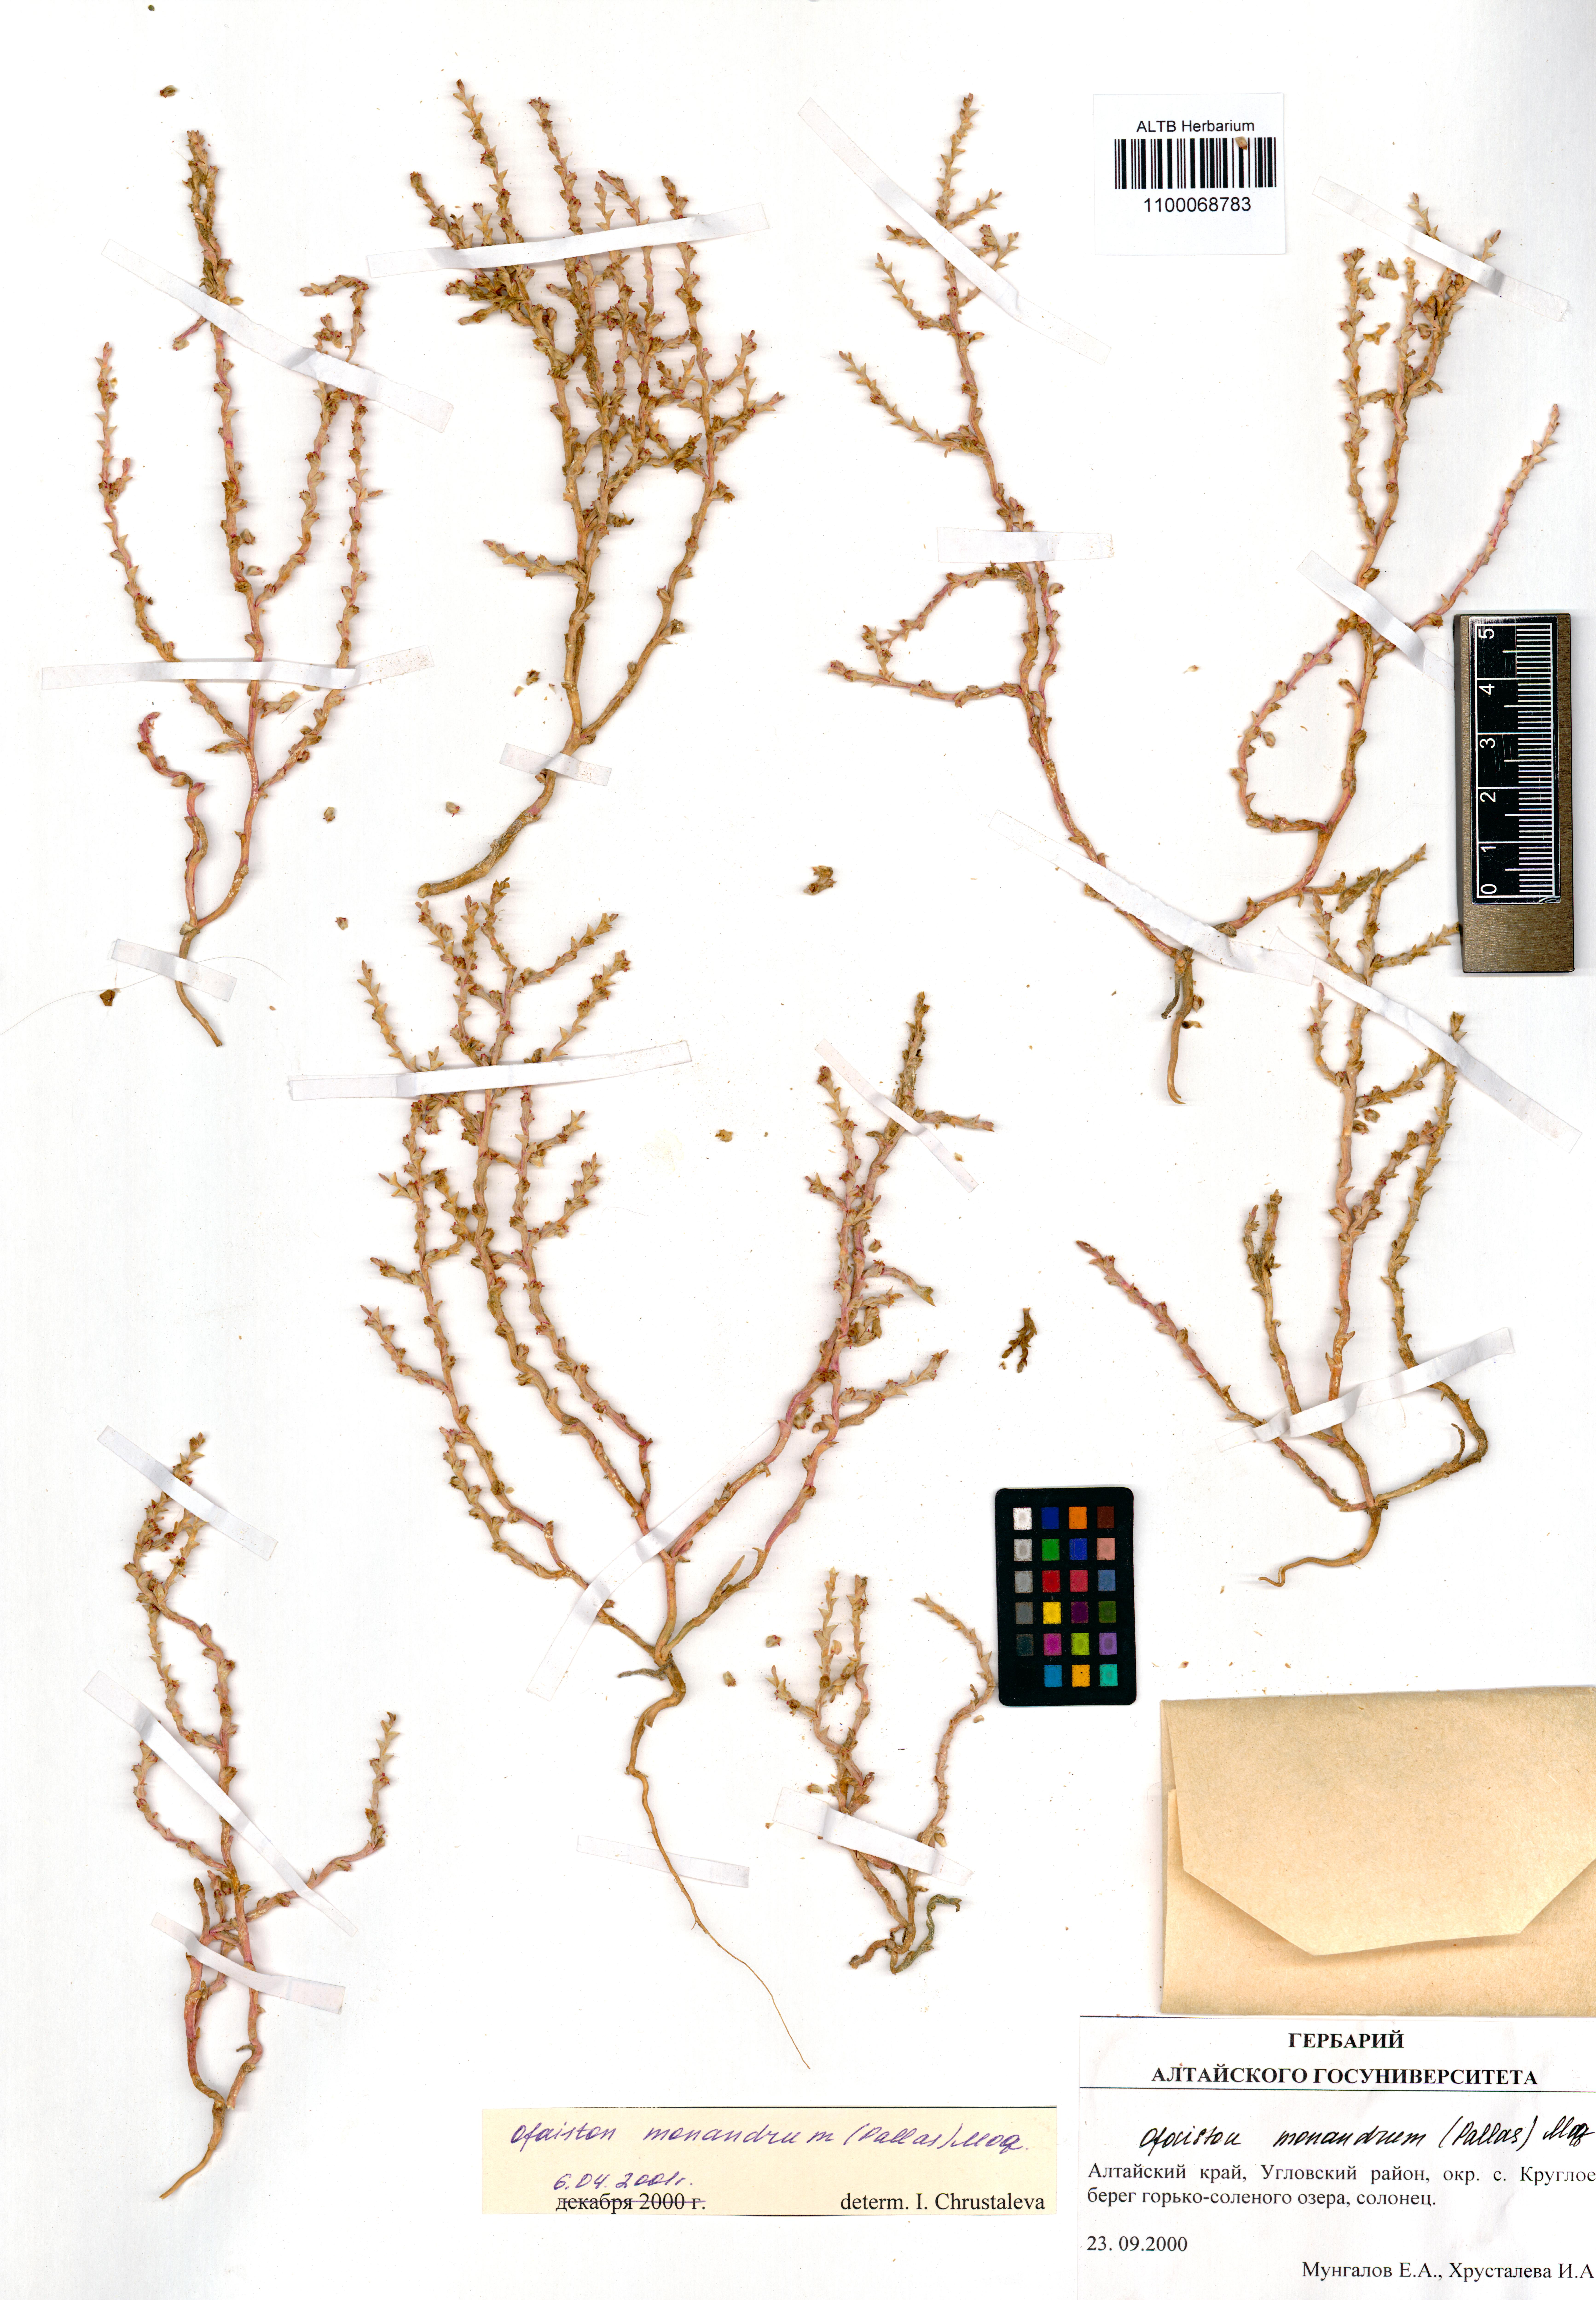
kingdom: Plantae
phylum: Tracheophyta
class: Magnoliopsida
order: Caryophyllales
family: Amaranthaceae
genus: Ofaiston
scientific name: Ofaiston monandrum
